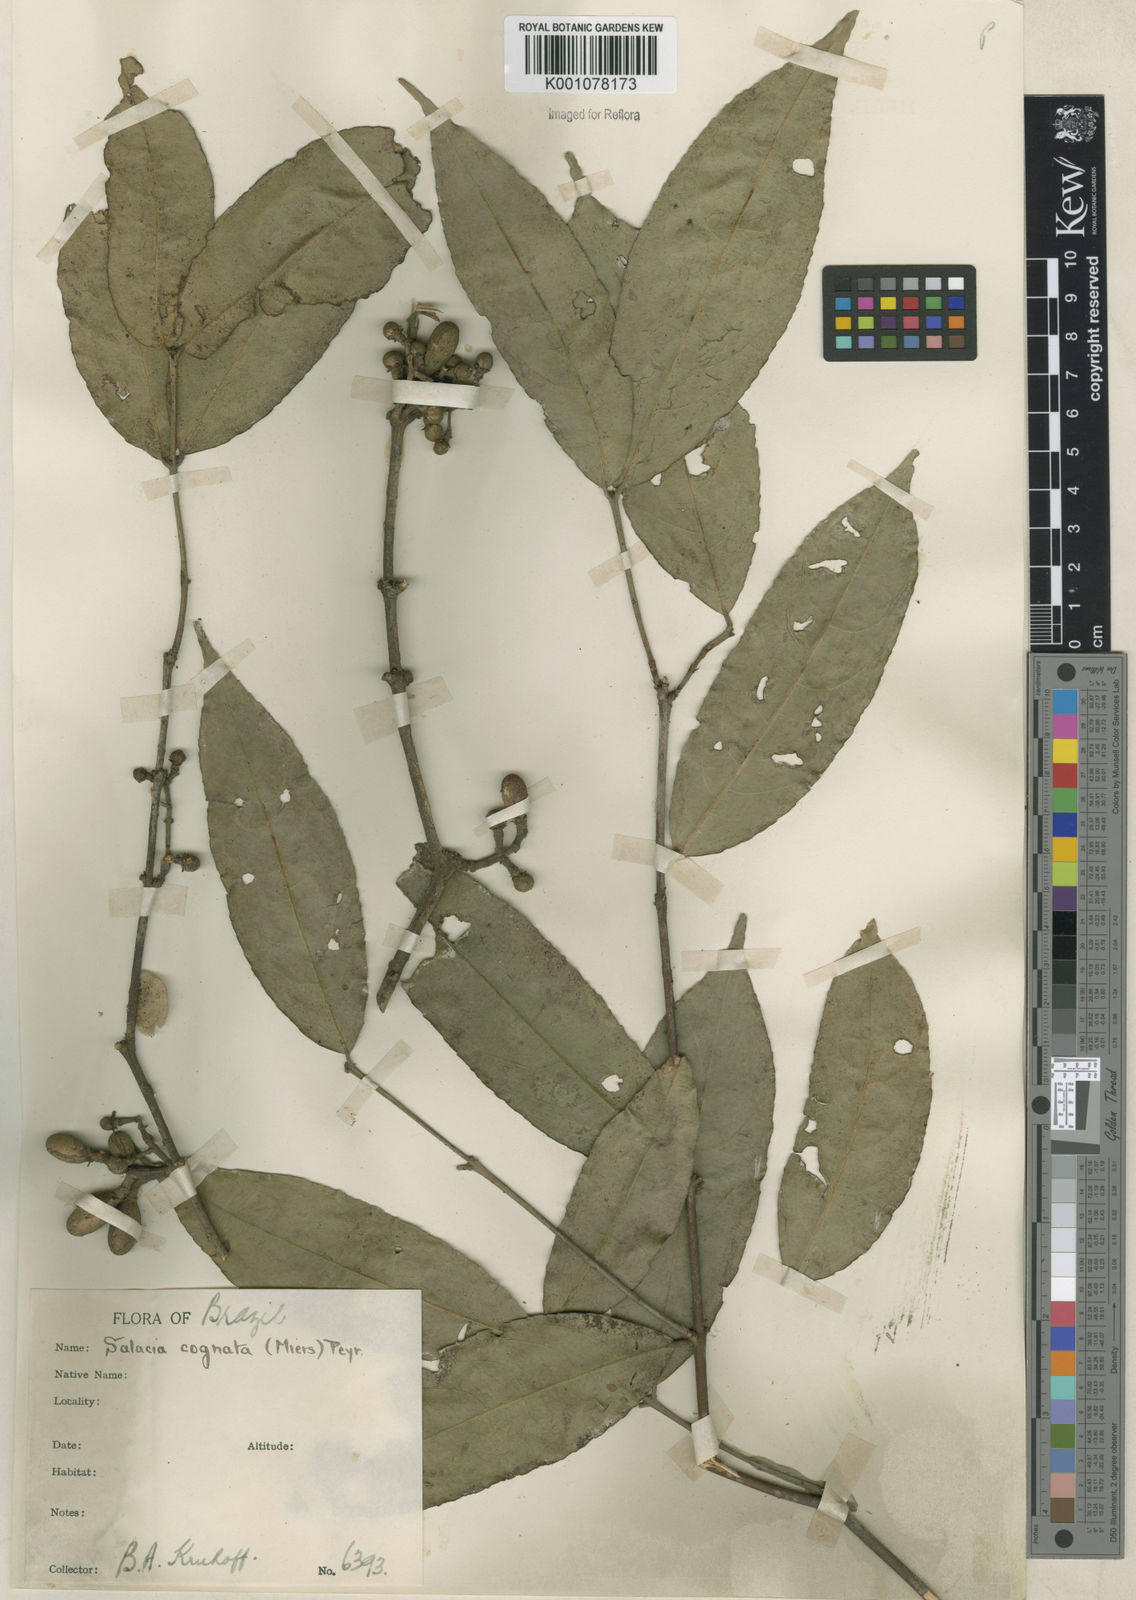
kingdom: Plantae
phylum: Tracheophyta
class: Magnoliopsida
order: Celastrales
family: Celastraceae
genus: Cheiloclinium
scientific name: Cheiloclinium cognatum
